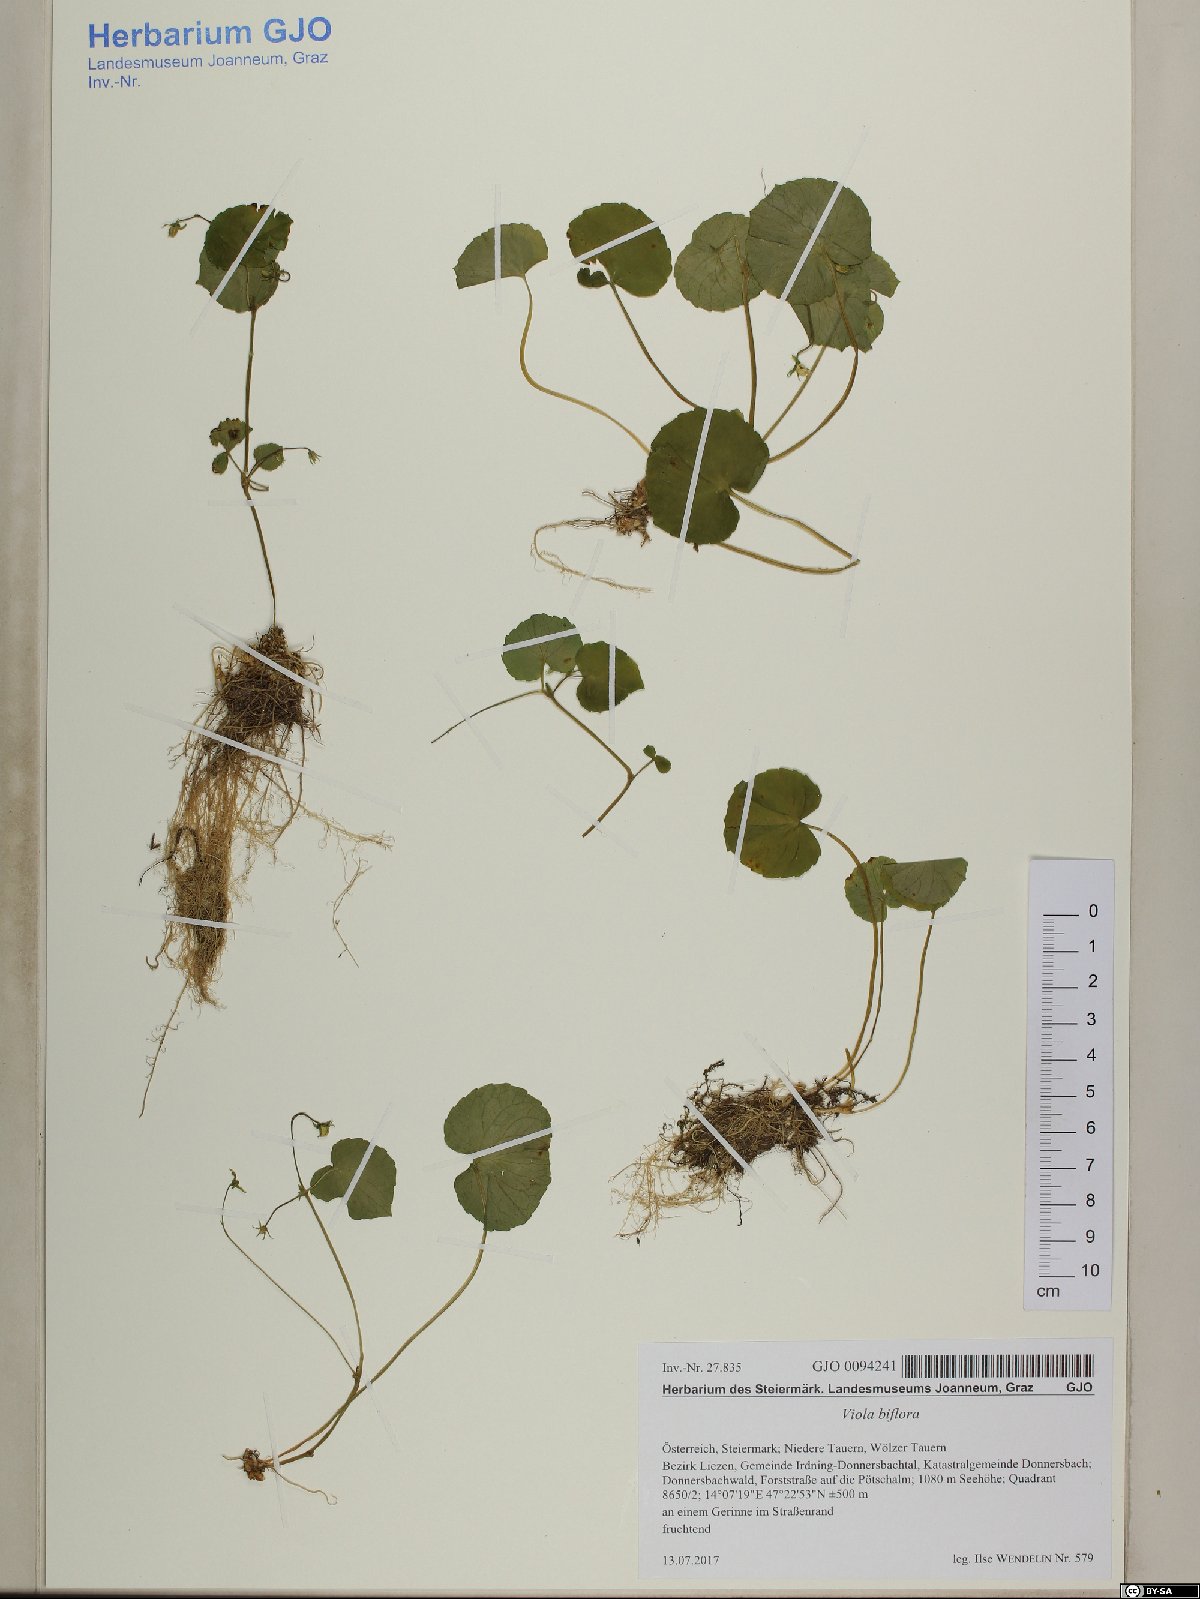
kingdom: Plantae
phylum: Tracheophyta
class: Magnoliopsida
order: Malpighiales
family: Violaceae
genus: Viola
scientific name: Viola biflora
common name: Alpine yellow violet
